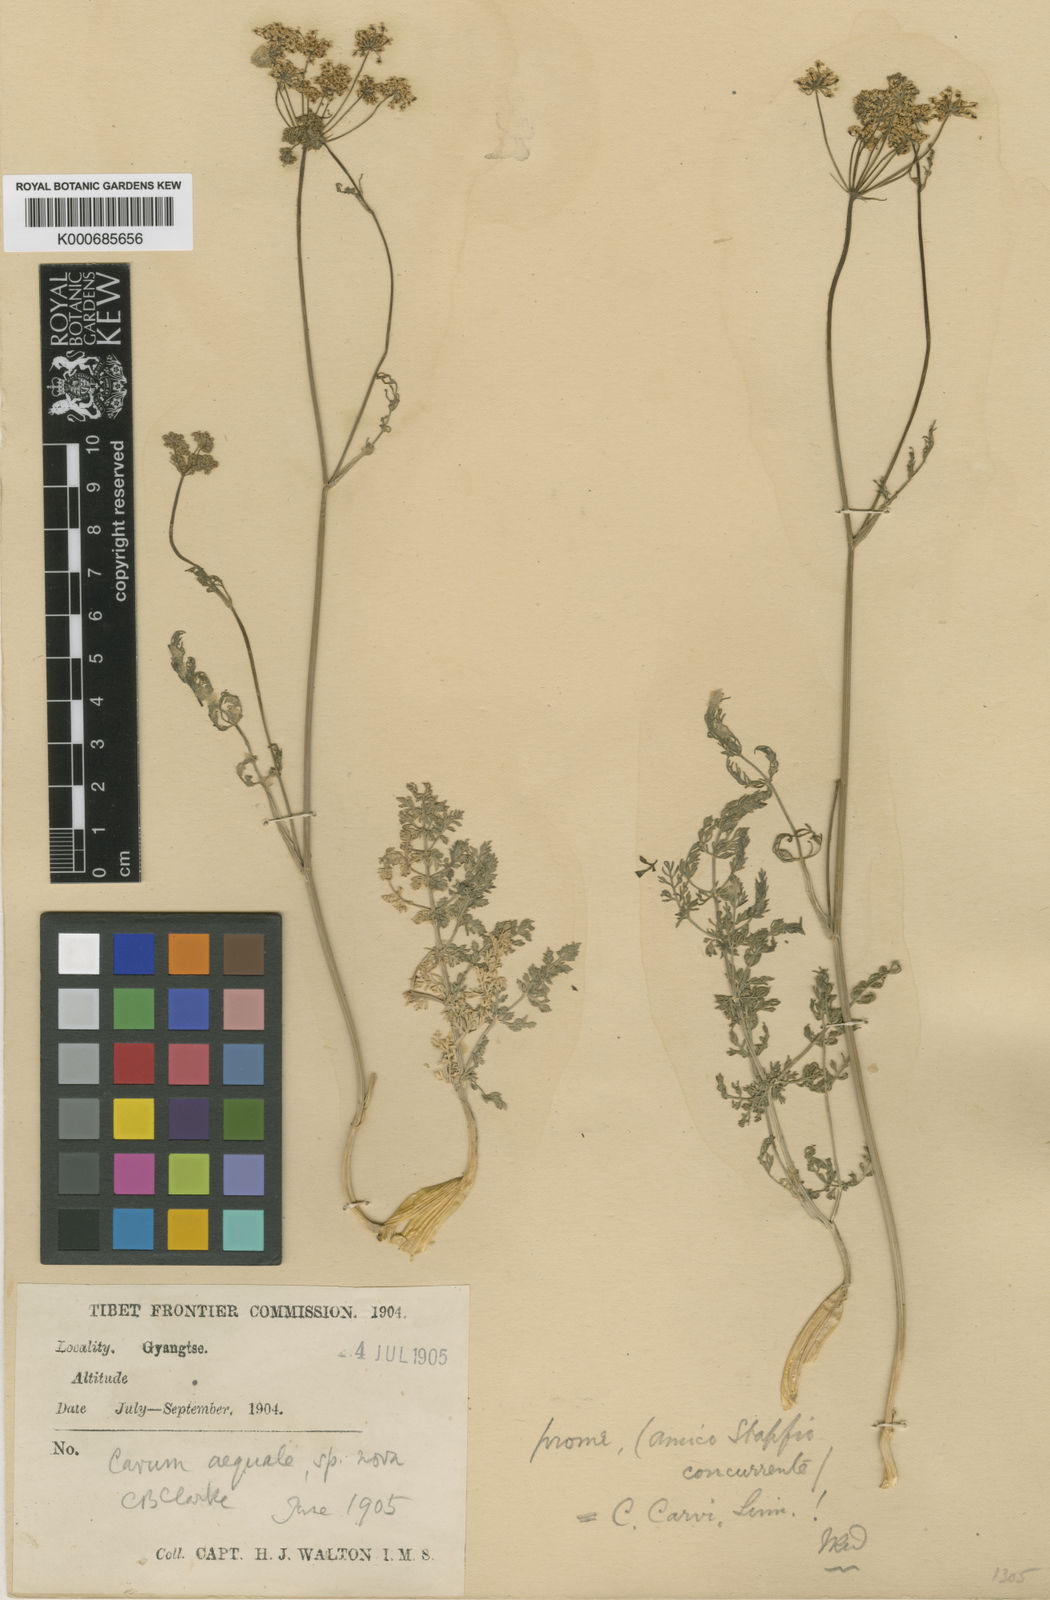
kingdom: Plantae
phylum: Tracheophyta
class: Magnoliopsida
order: Apiales
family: Apiaceae
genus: Carum
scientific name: Carum carvi
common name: Caraway
